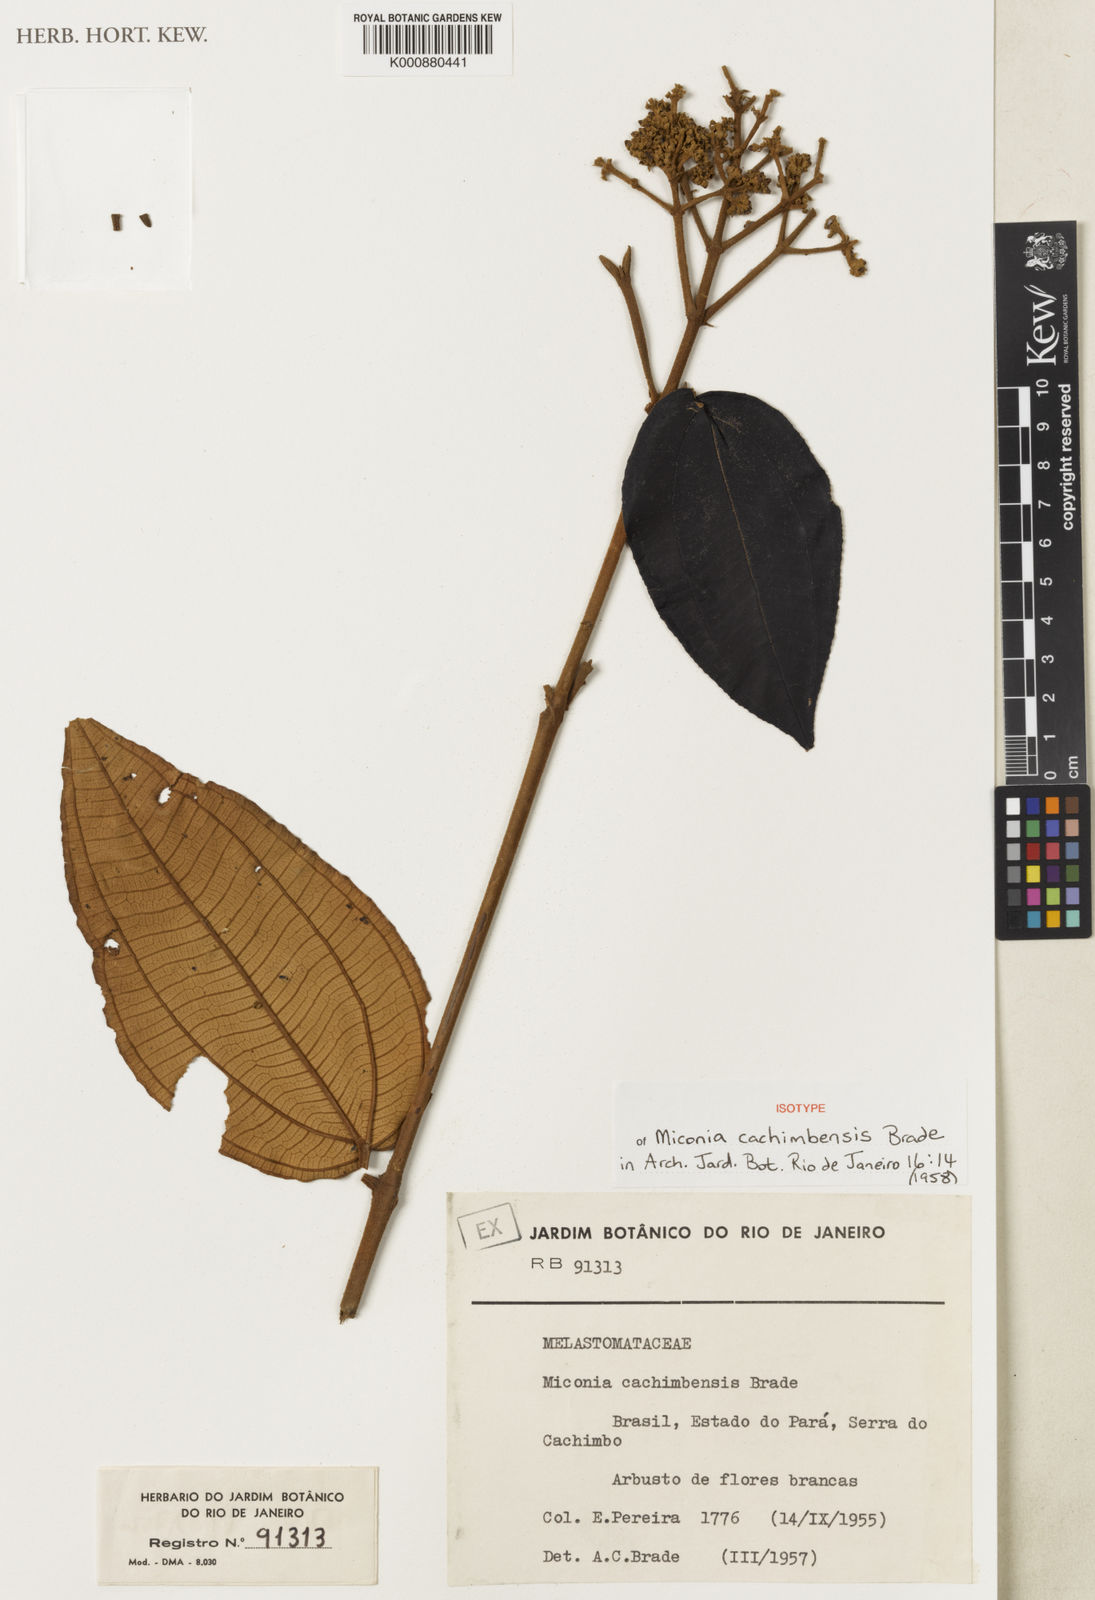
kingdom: Plantae
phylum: Tracheophyta
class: Magnoliopsida
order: Myrtales
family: Melastomataceae
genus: Miconia
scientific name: Miconia alborufescens
